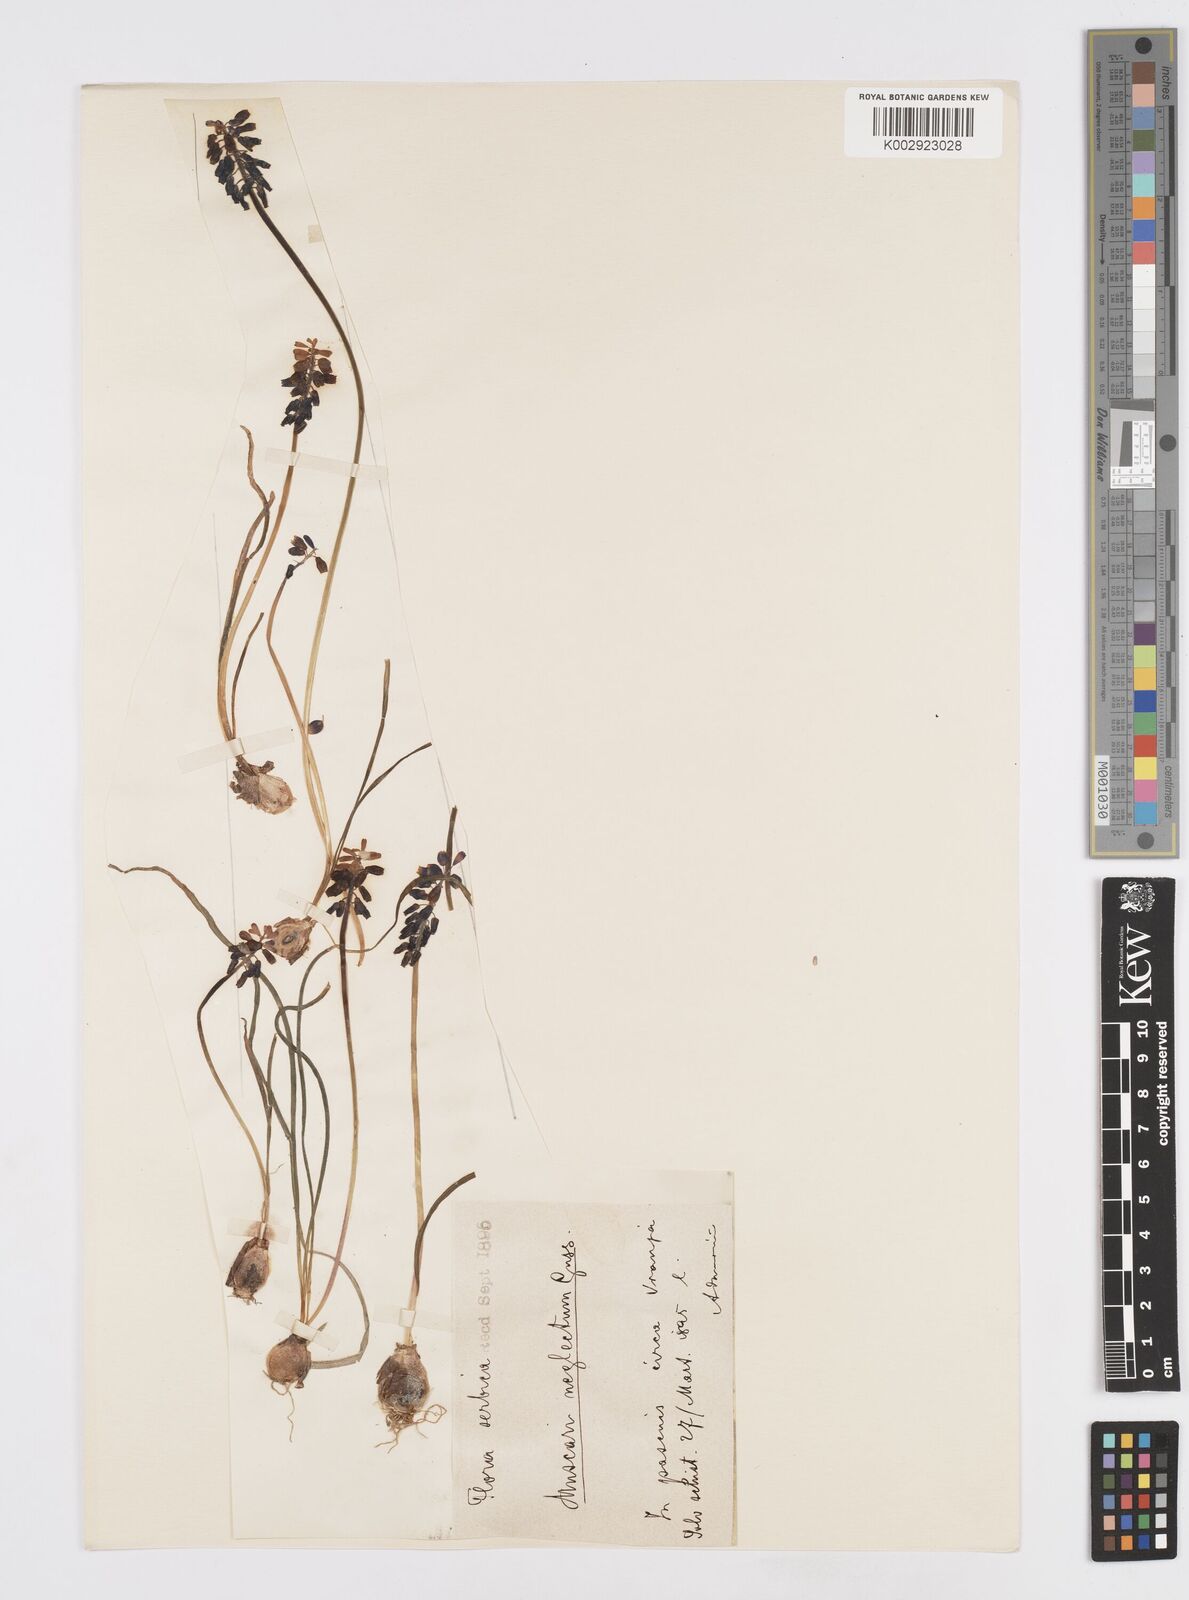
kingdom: Plantae
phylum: Tracheophyta
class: Liliopsida
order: Asparagales
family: Asparagaceae
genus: Muscari
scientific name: Muscari neglectum
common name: Grape-hyacinth
